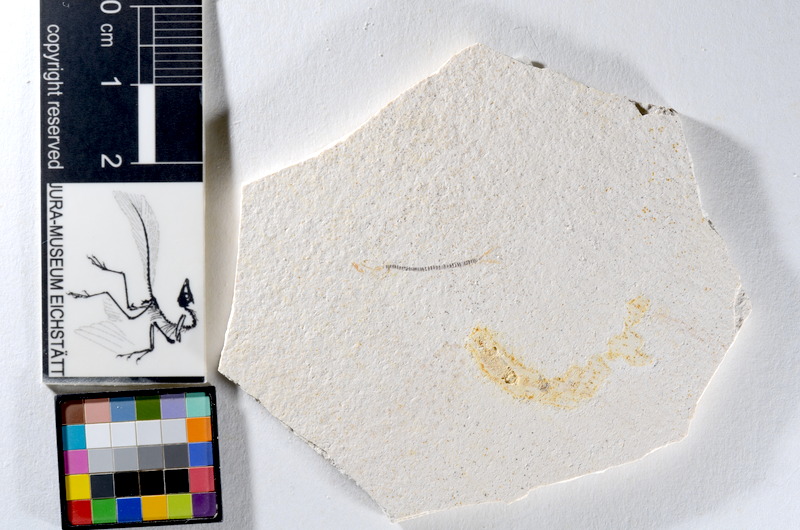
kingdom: Animalia
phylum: Chordata
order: Salmoniformes
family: Orthogonikleithridae
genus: Orthogonikleithrus
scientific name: Orthogonikleithrus hoelli
